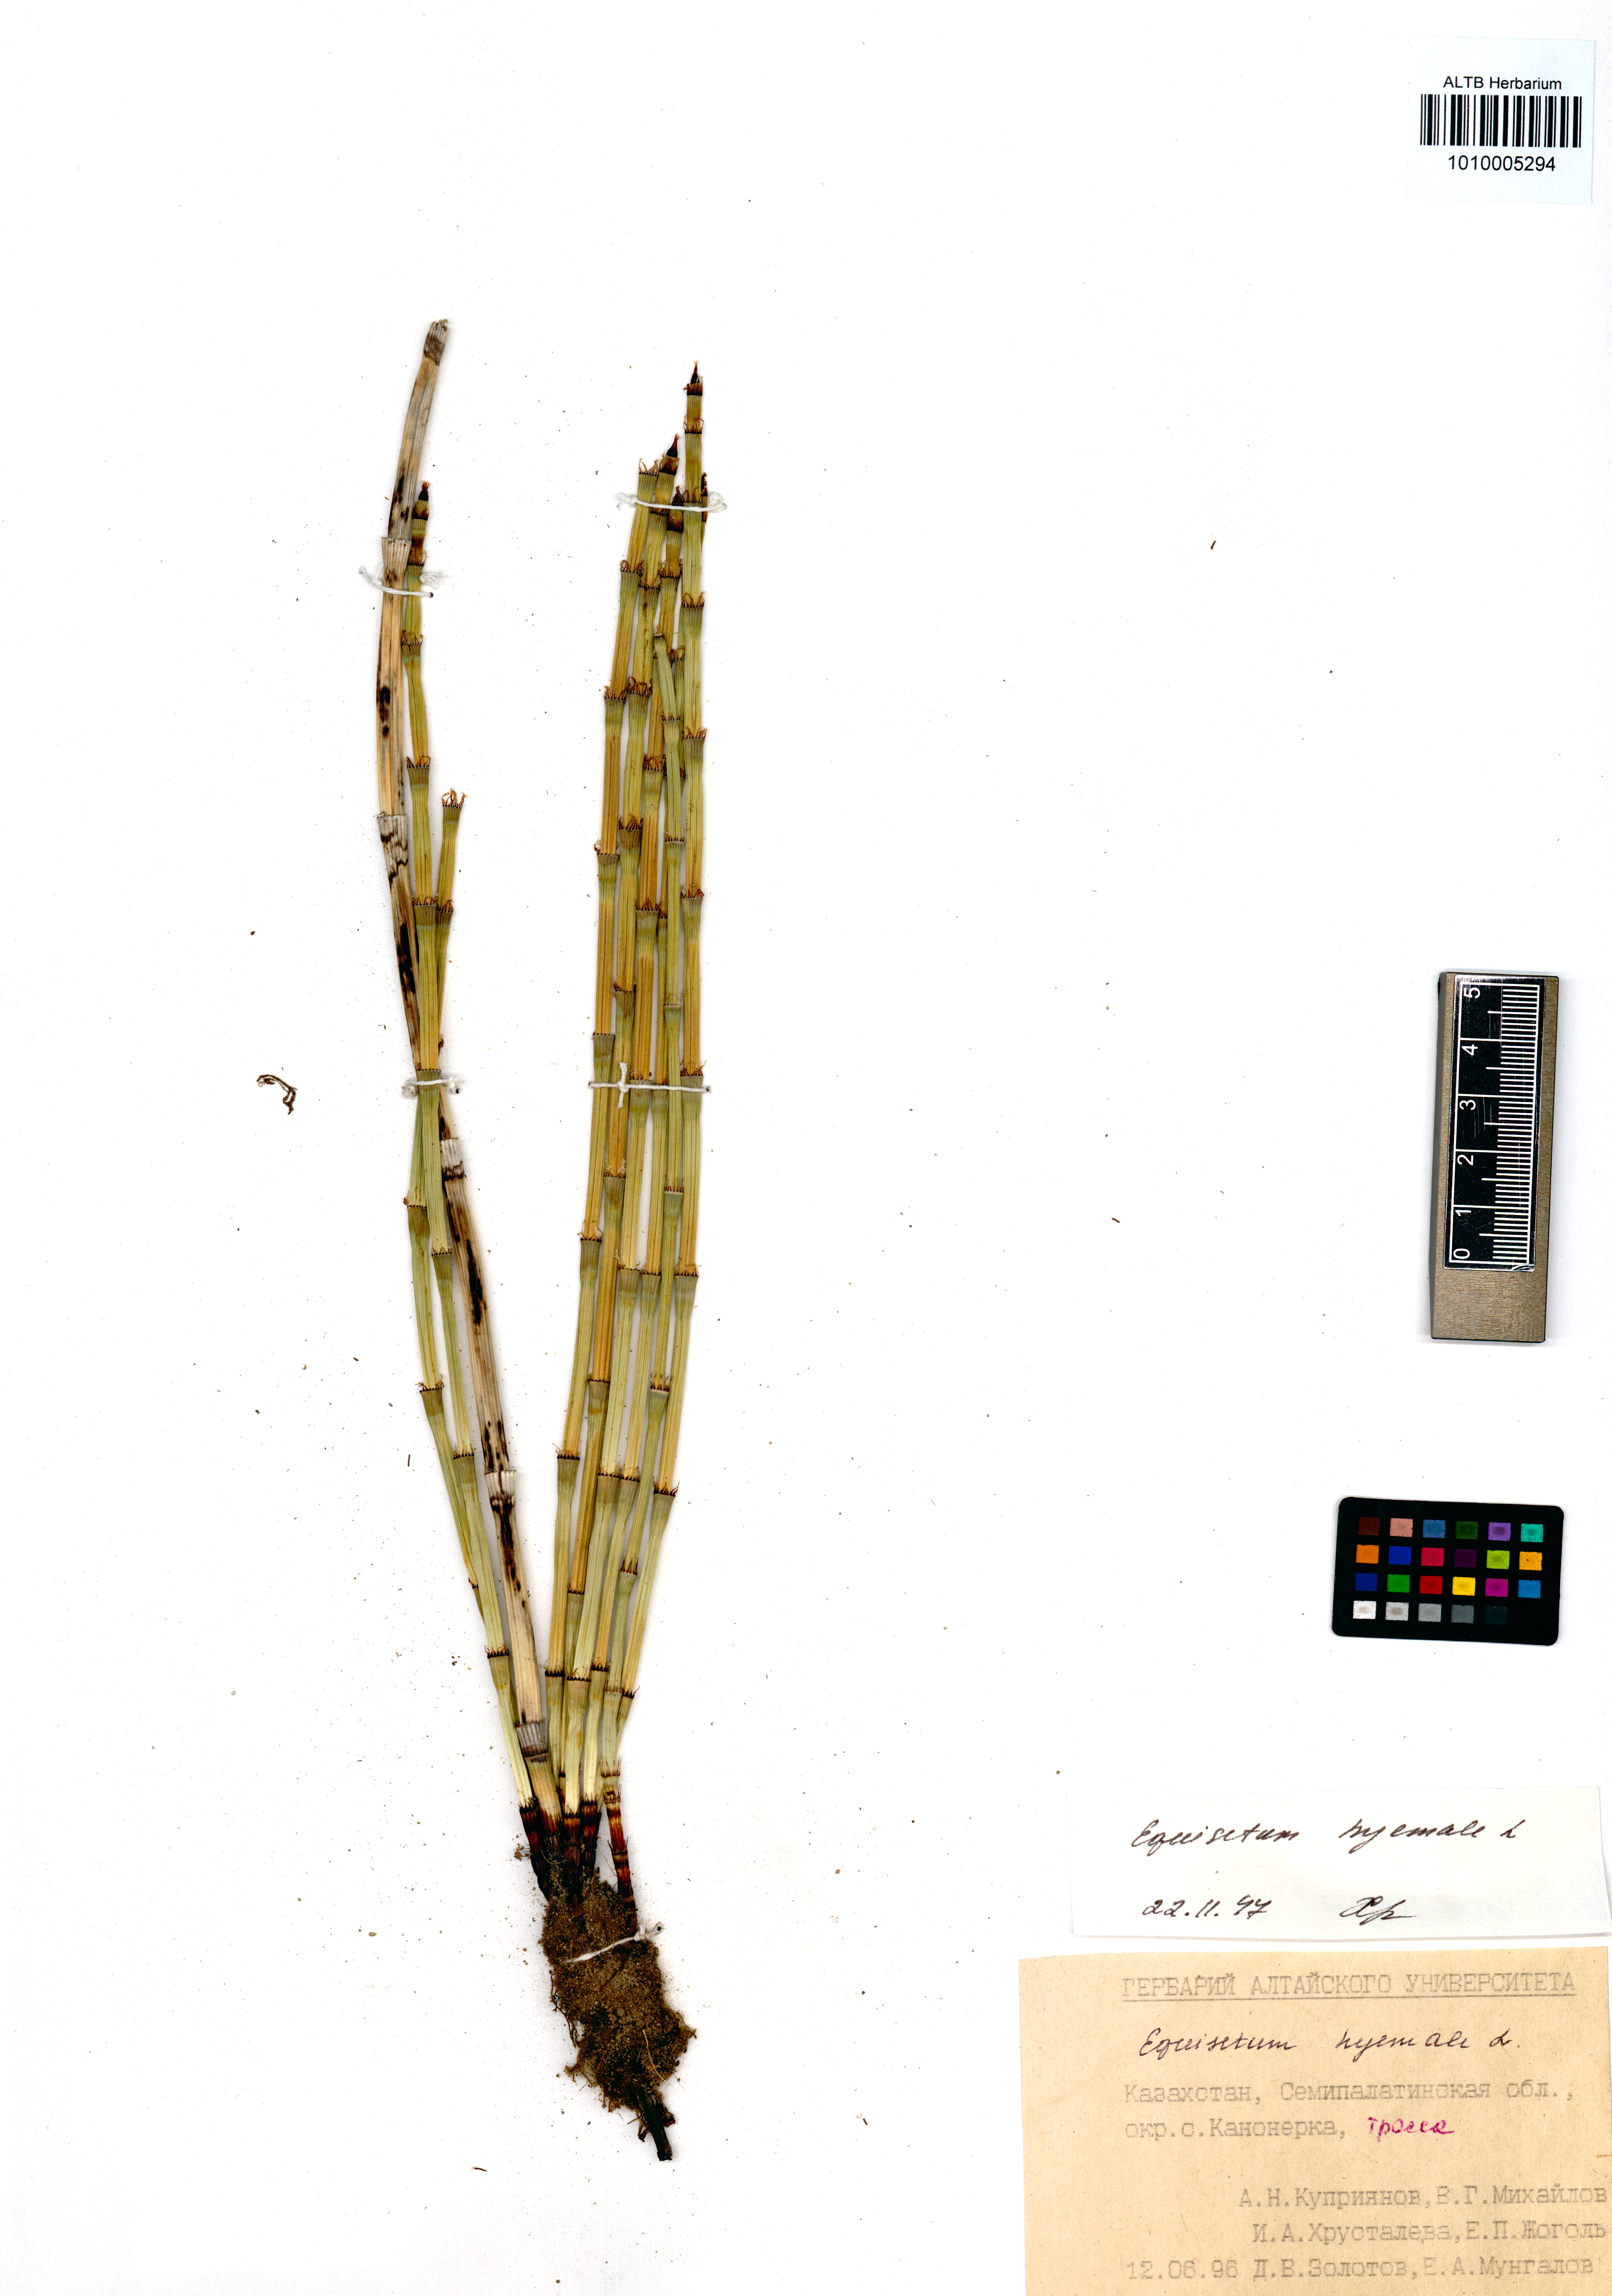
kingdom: Plantae
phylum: Tracheophyta
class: Polypodiopsida
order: Equisetales
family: Equisetaceae
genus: Equisetum
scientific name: Equisetum hyemale
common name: Rough horsetail
